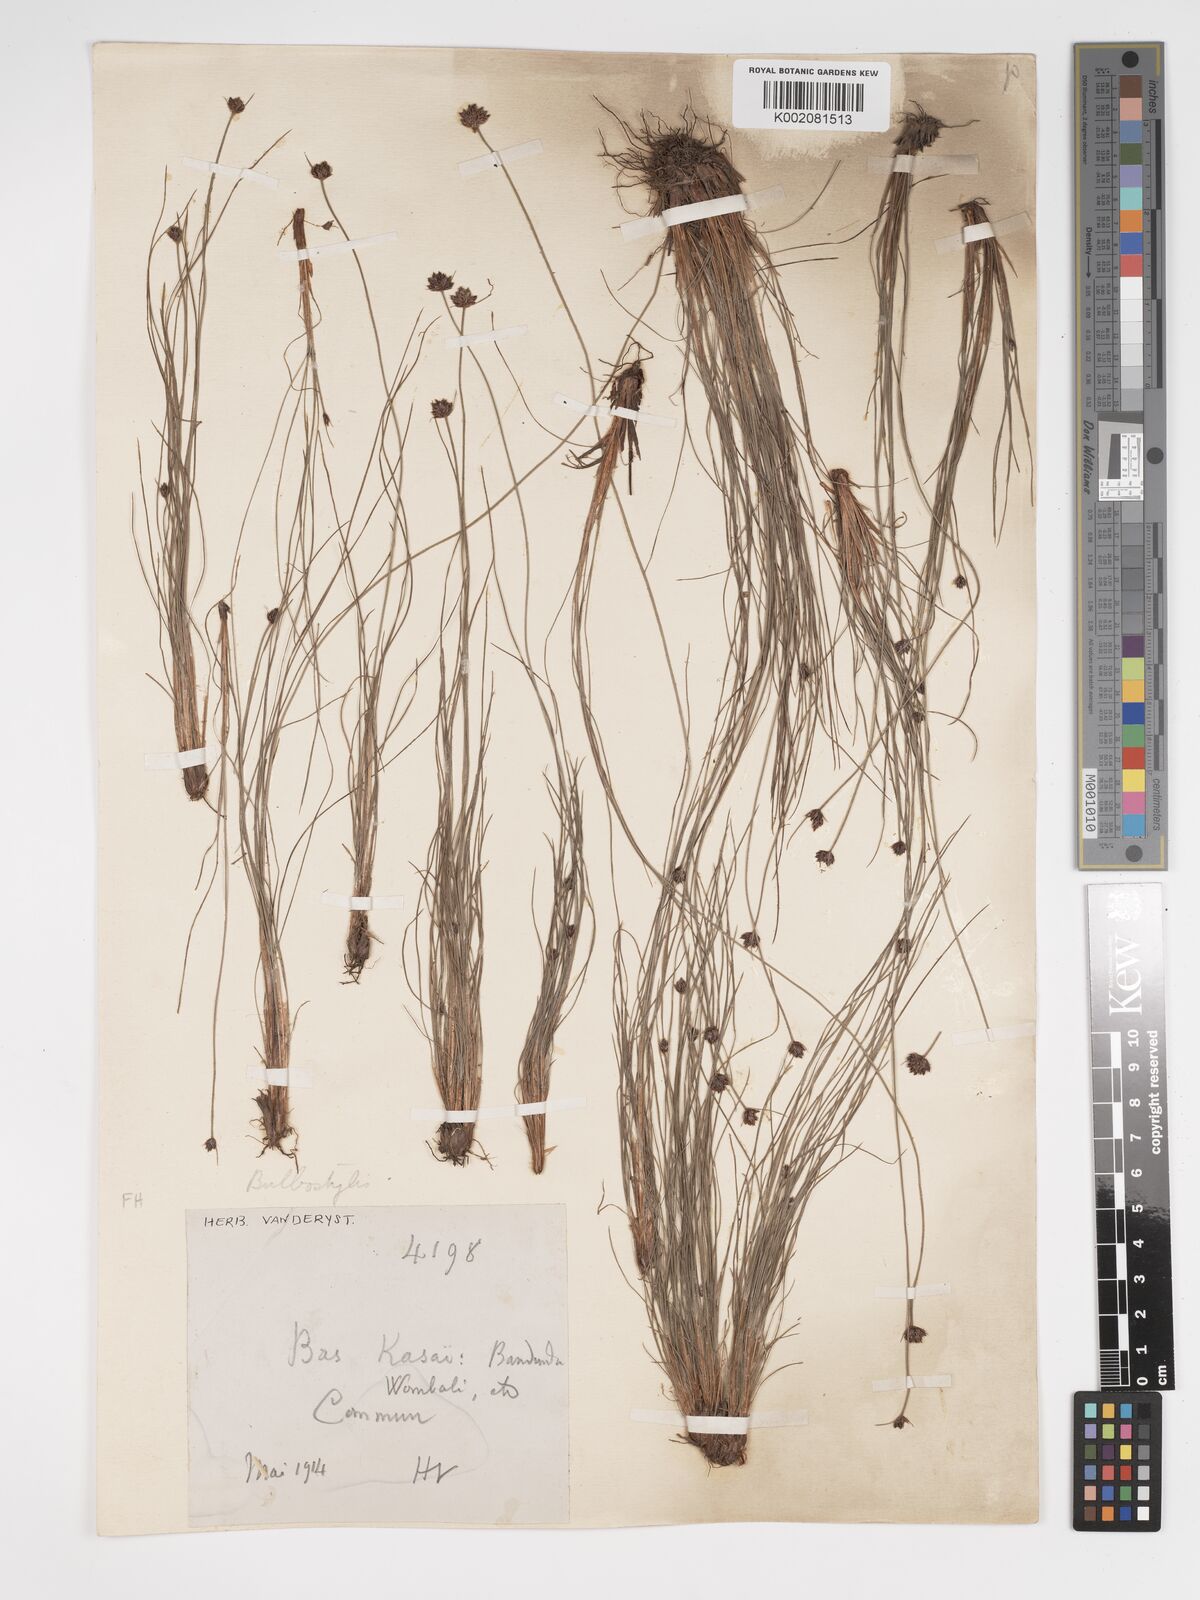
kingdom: Plantae
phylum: Tracheophyta
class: Liliopsida
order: Poales
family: Cyperaceae
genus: Bulbostylis
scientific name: Bulbostylis scabricaulis
